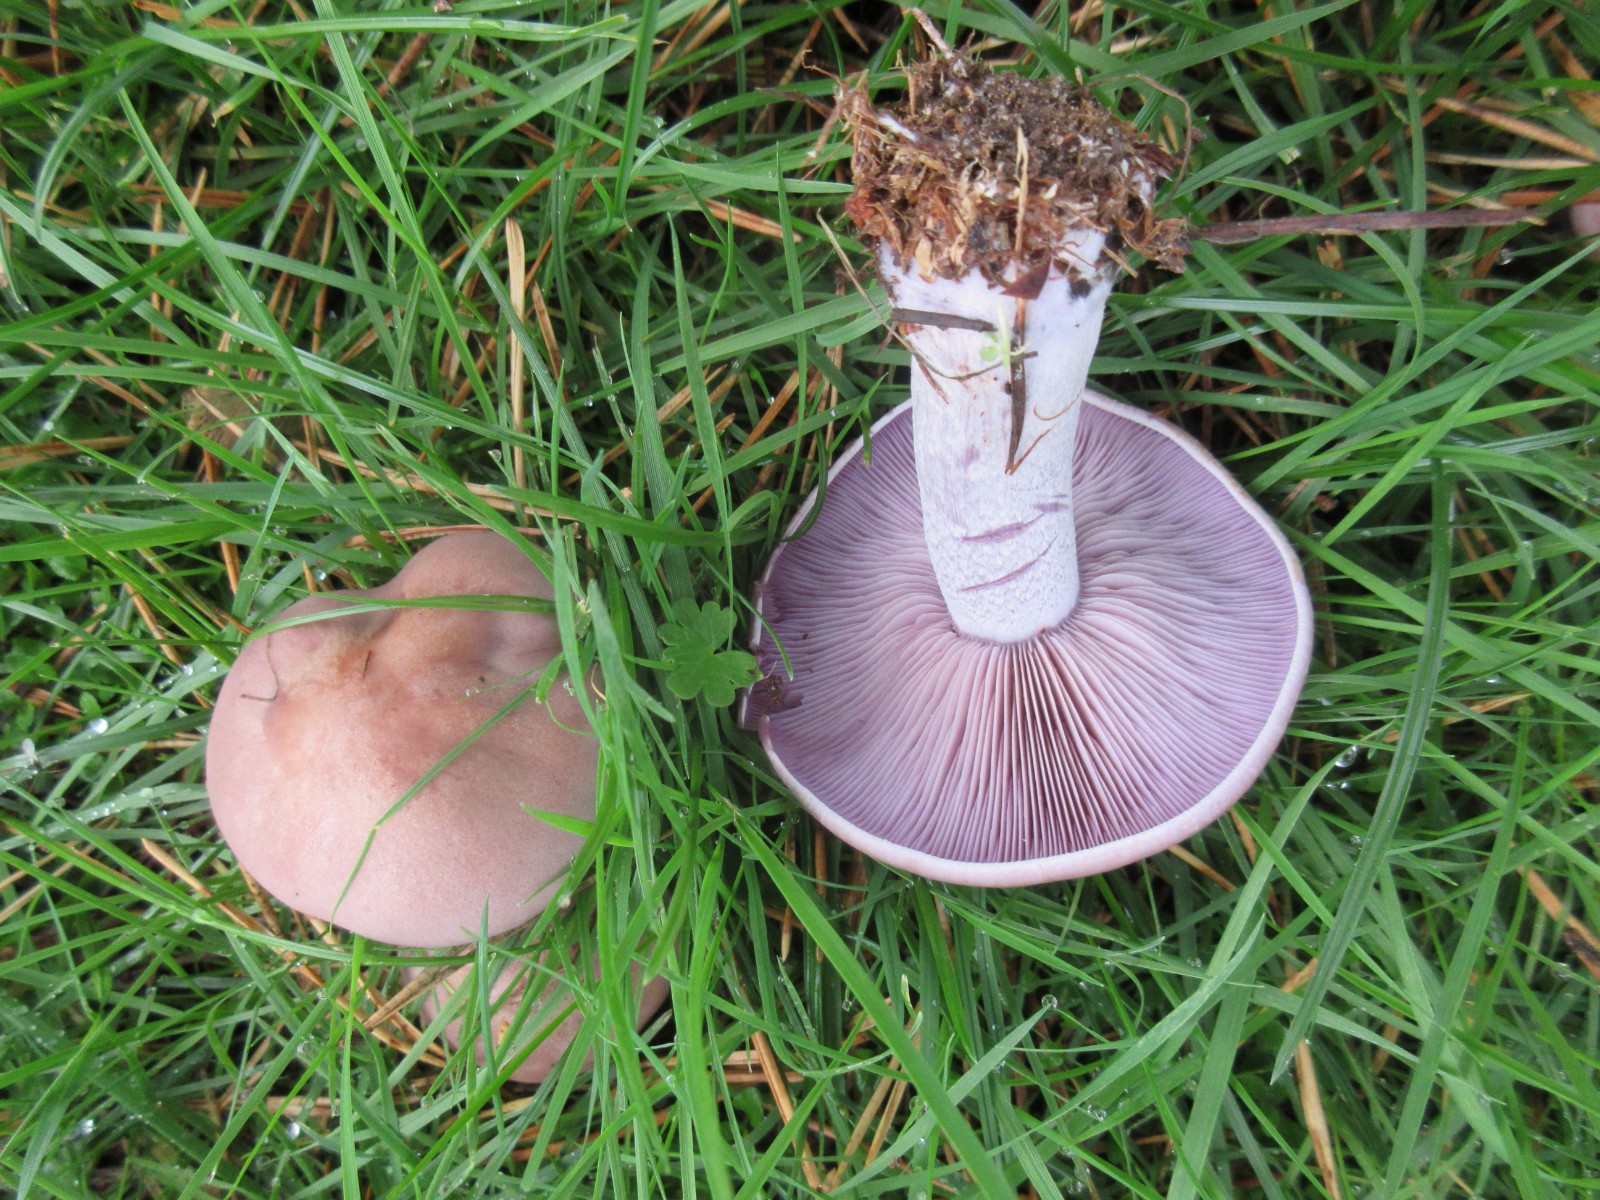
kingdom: Fungi
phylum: Basidiomycota
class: Agaricomycetes
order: Agaricales
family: Tricholomataceae
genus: Lepista
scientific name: Lepista nuda
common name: violet hekseringshat
